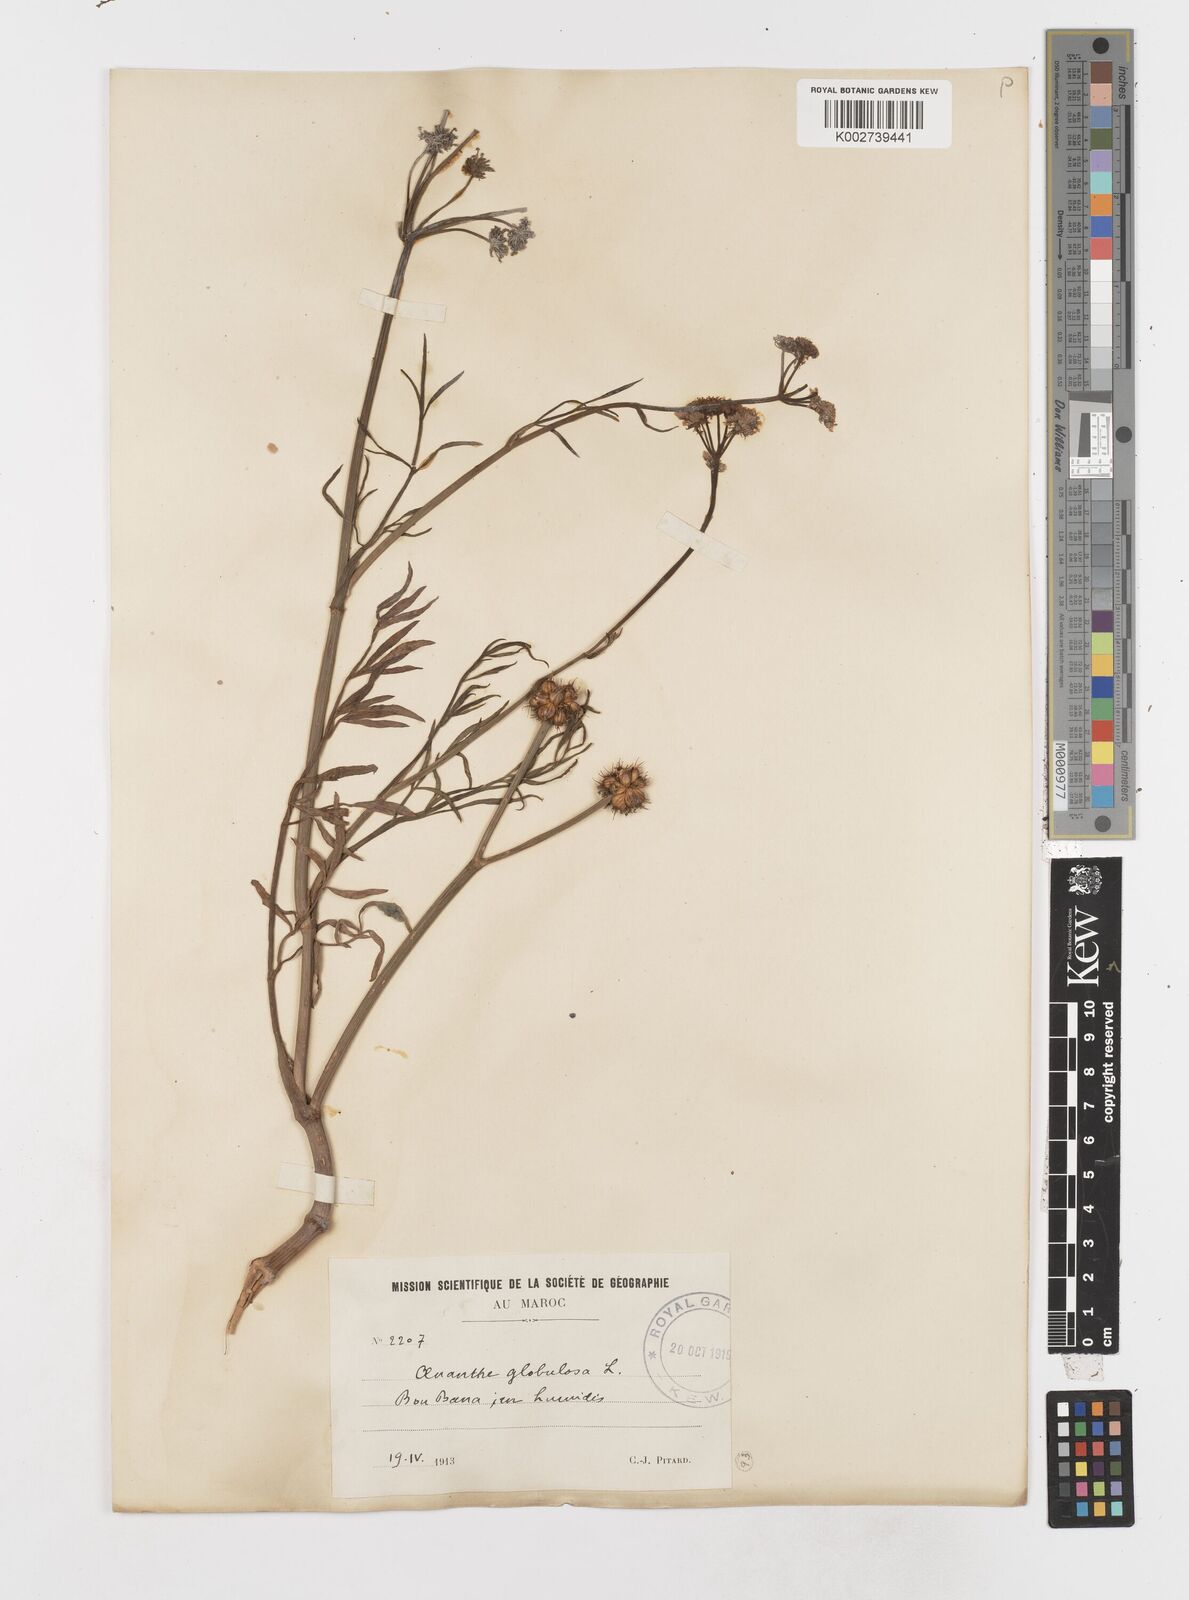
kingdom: Plantae
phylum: Tracheophyta
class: Magnoliopsida
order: Apiales
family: Apiaceae
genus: Oenanthe
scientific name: Oenanthe globulosa
